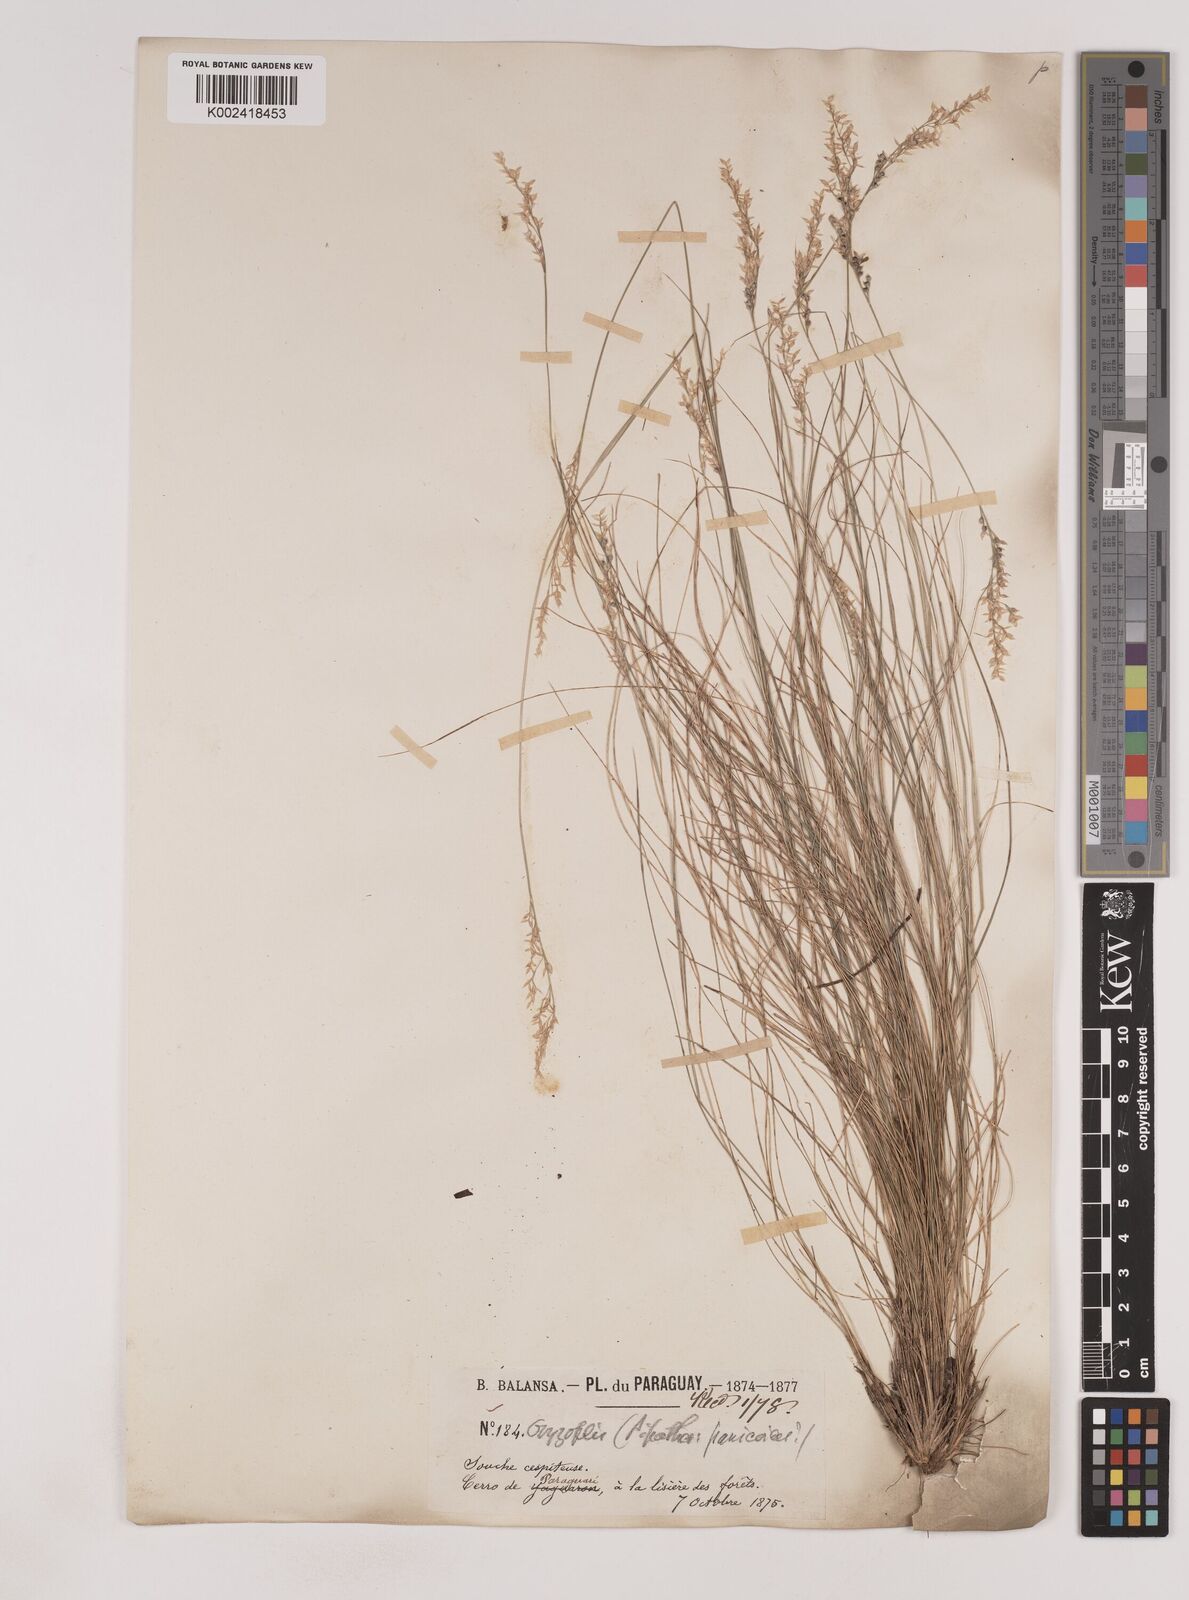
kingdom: Plantae
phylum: Tracheophyta
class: Liliopsida
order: Poales
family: Poaceae
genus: Piptochaetium
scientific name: Piptochaetium montevidense
